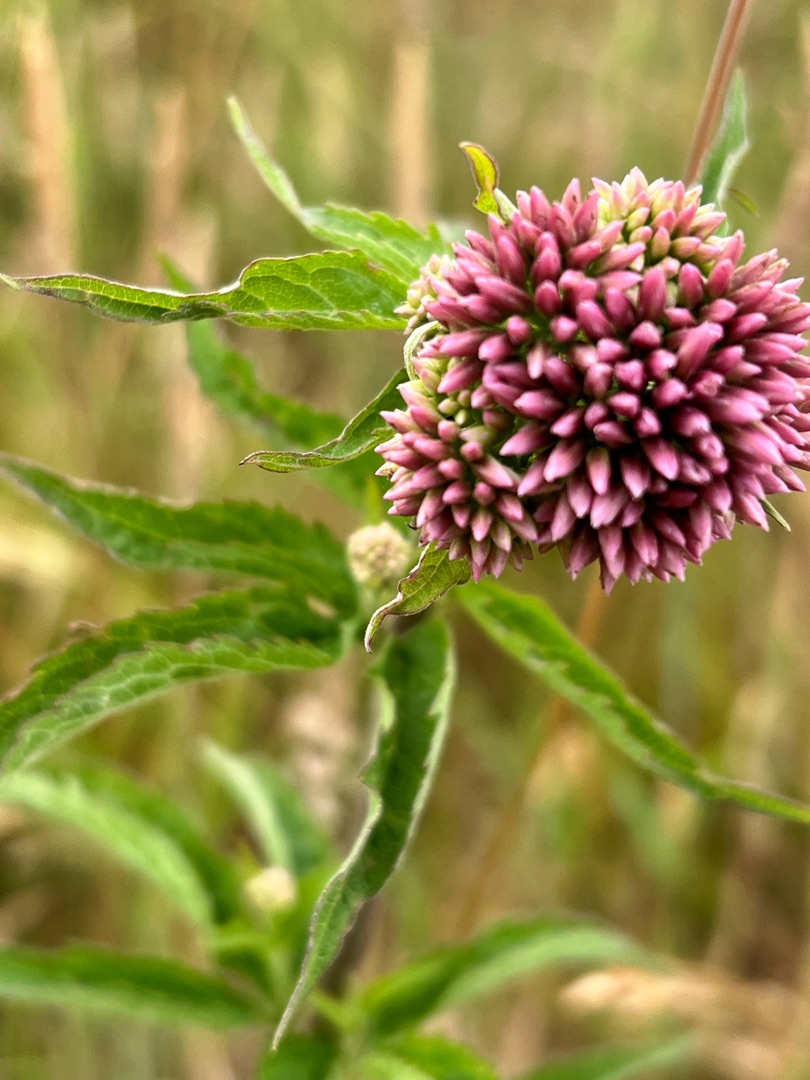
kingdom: Plantae
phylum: Tracheophyta
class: Magnoliopsida
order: Asterales
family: Asteraceae
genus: Eupatorium
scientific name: Eupatorium cannabinum
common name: Hjortetrøst
